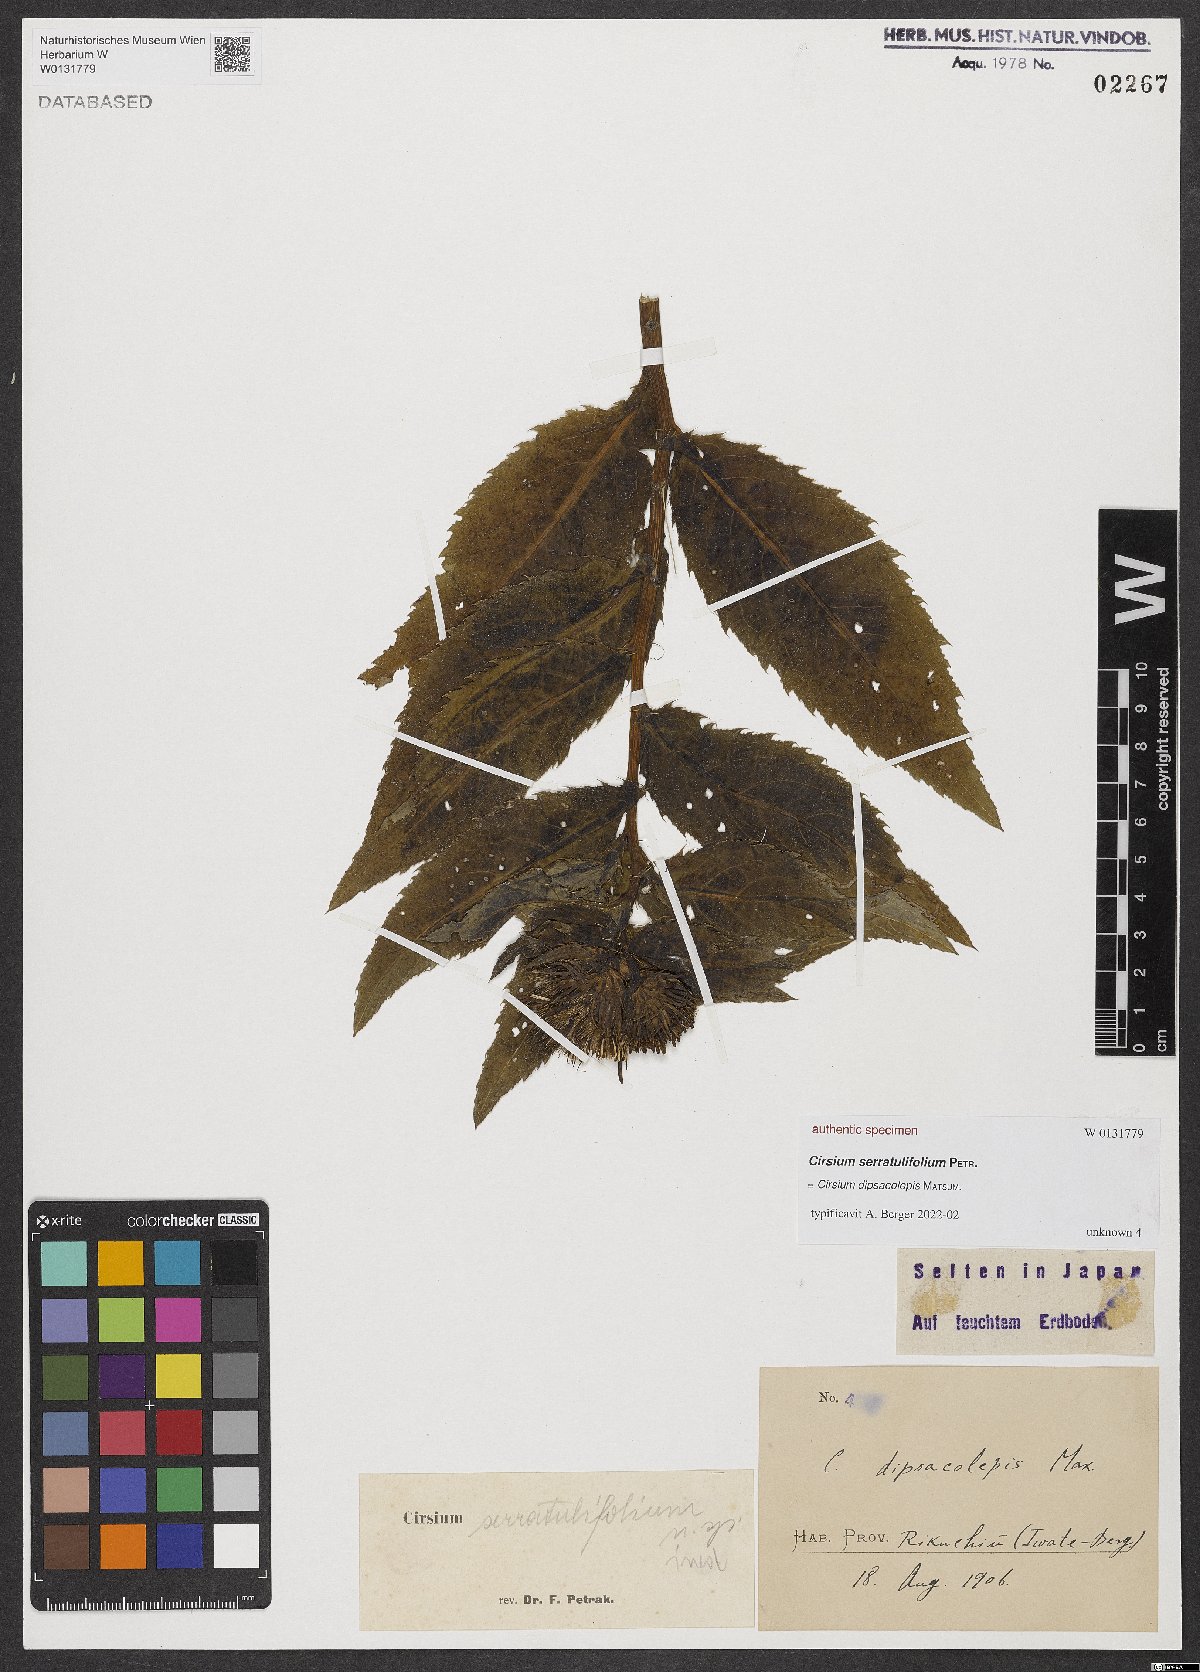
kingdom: Plantae
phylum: Tracheophyta
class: Magnoliopsida
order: Asterales
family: Asteraceae
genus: Cirsium
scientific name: Cirsium
